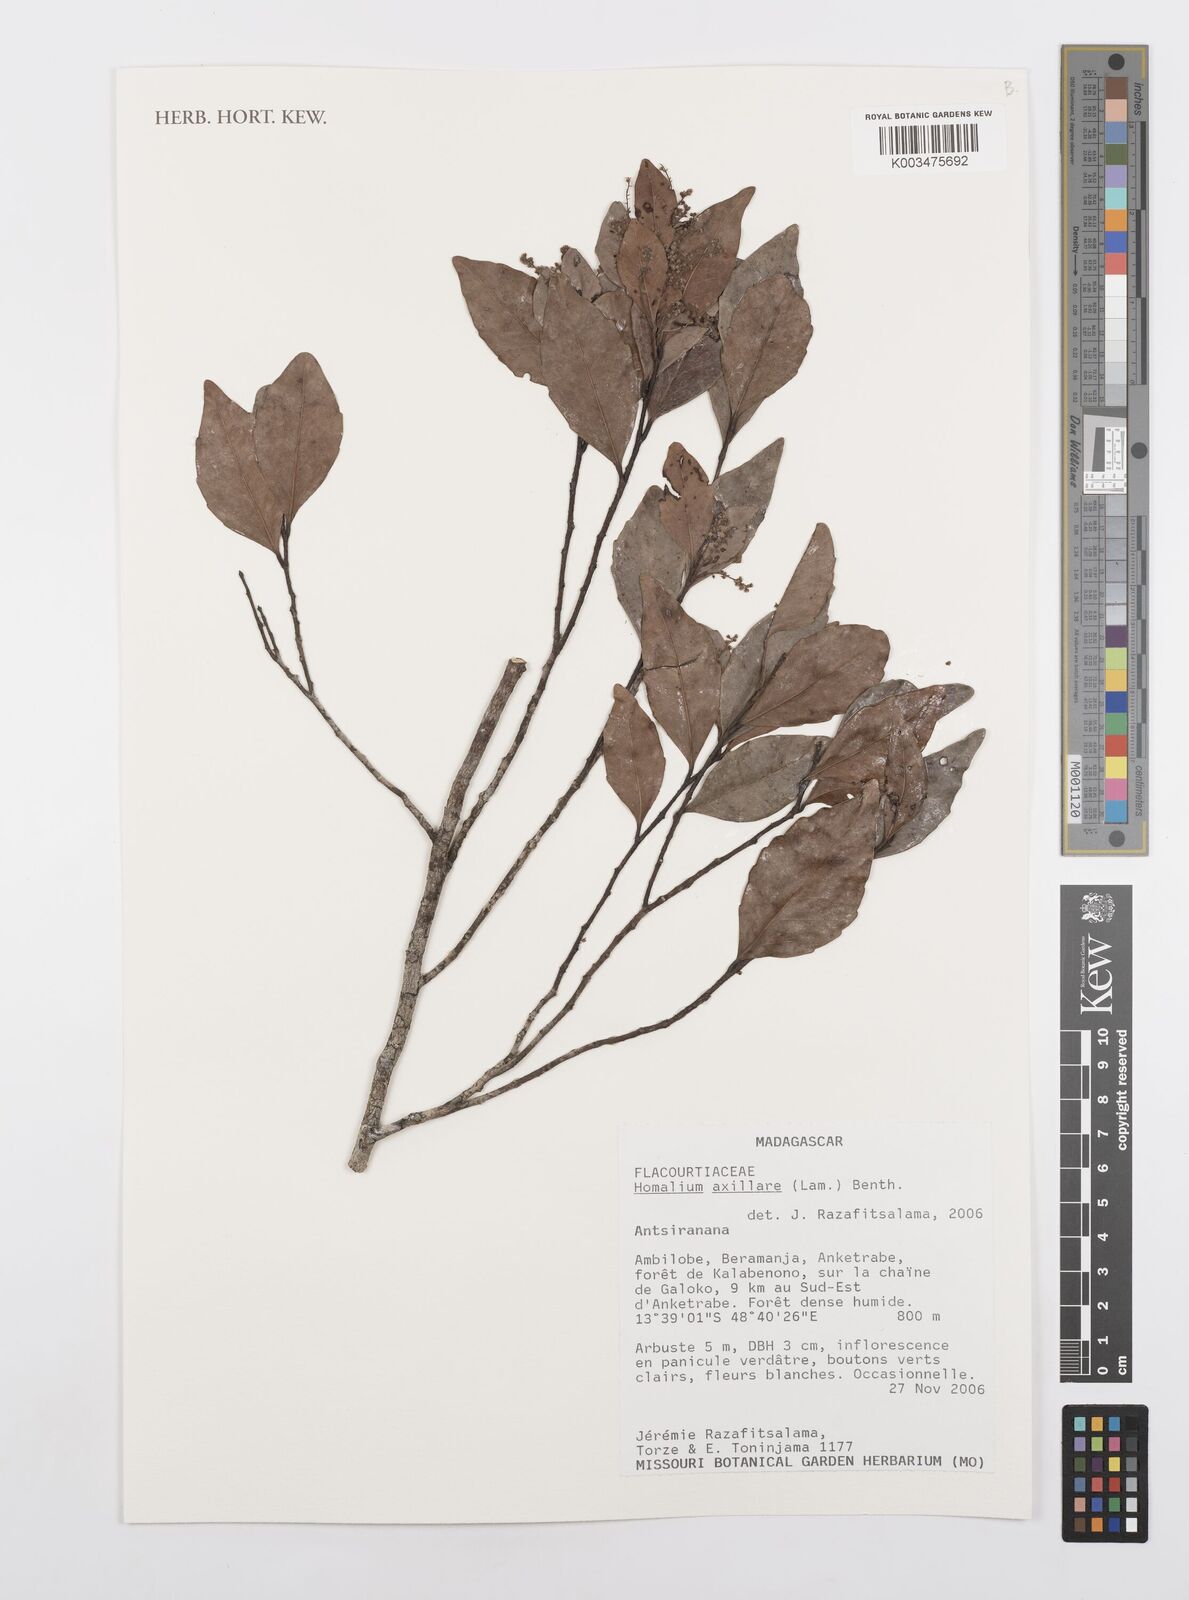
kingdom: Plantae
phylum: Tracheophyta
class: Magnoliopsida
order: Malpighiales
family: Salicaceae
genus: Homalium
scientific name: Homalium axillare
